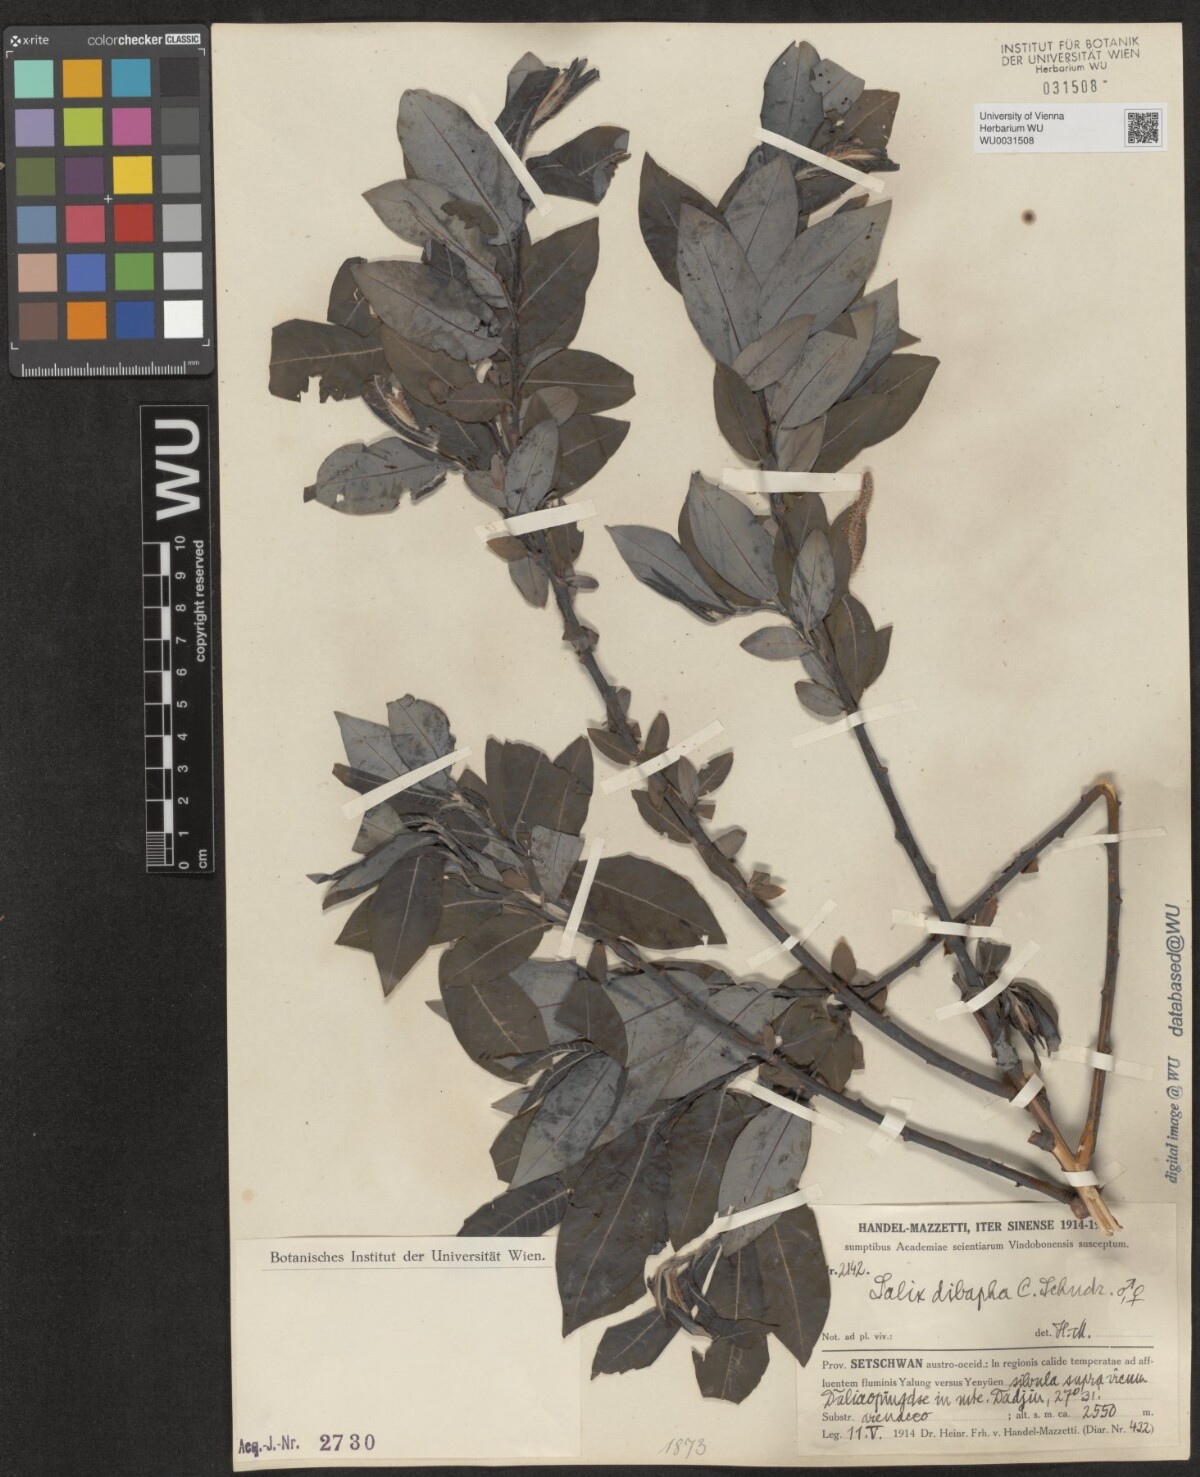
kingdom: Plantae
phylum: Tracheophyta
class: Magnoliopsida
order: Malpighiales
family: Salicaceae
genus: Salix
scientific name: Salix dibapha
